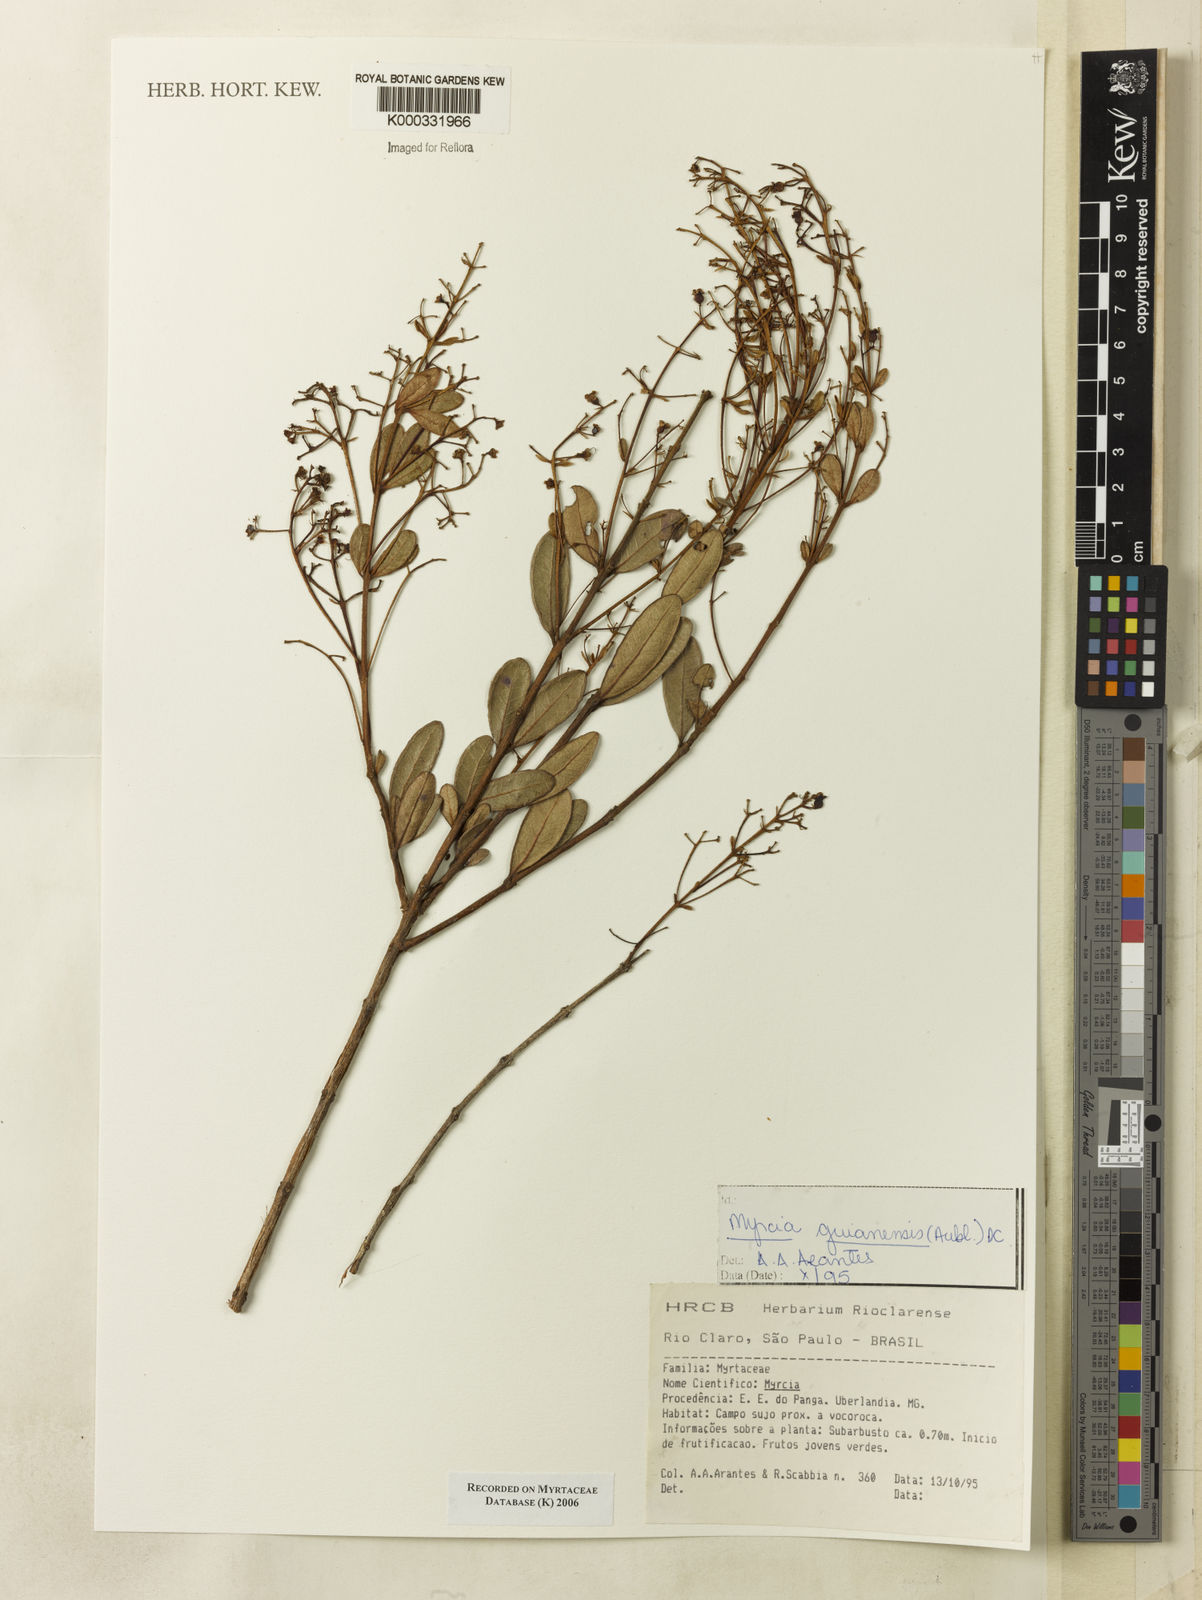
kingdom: Plantae
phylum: Tracheophyta
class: Magnoliopsida
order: Myrtales
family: Myrtaceae
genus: Myrcia
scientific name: Myrcia guianensis
